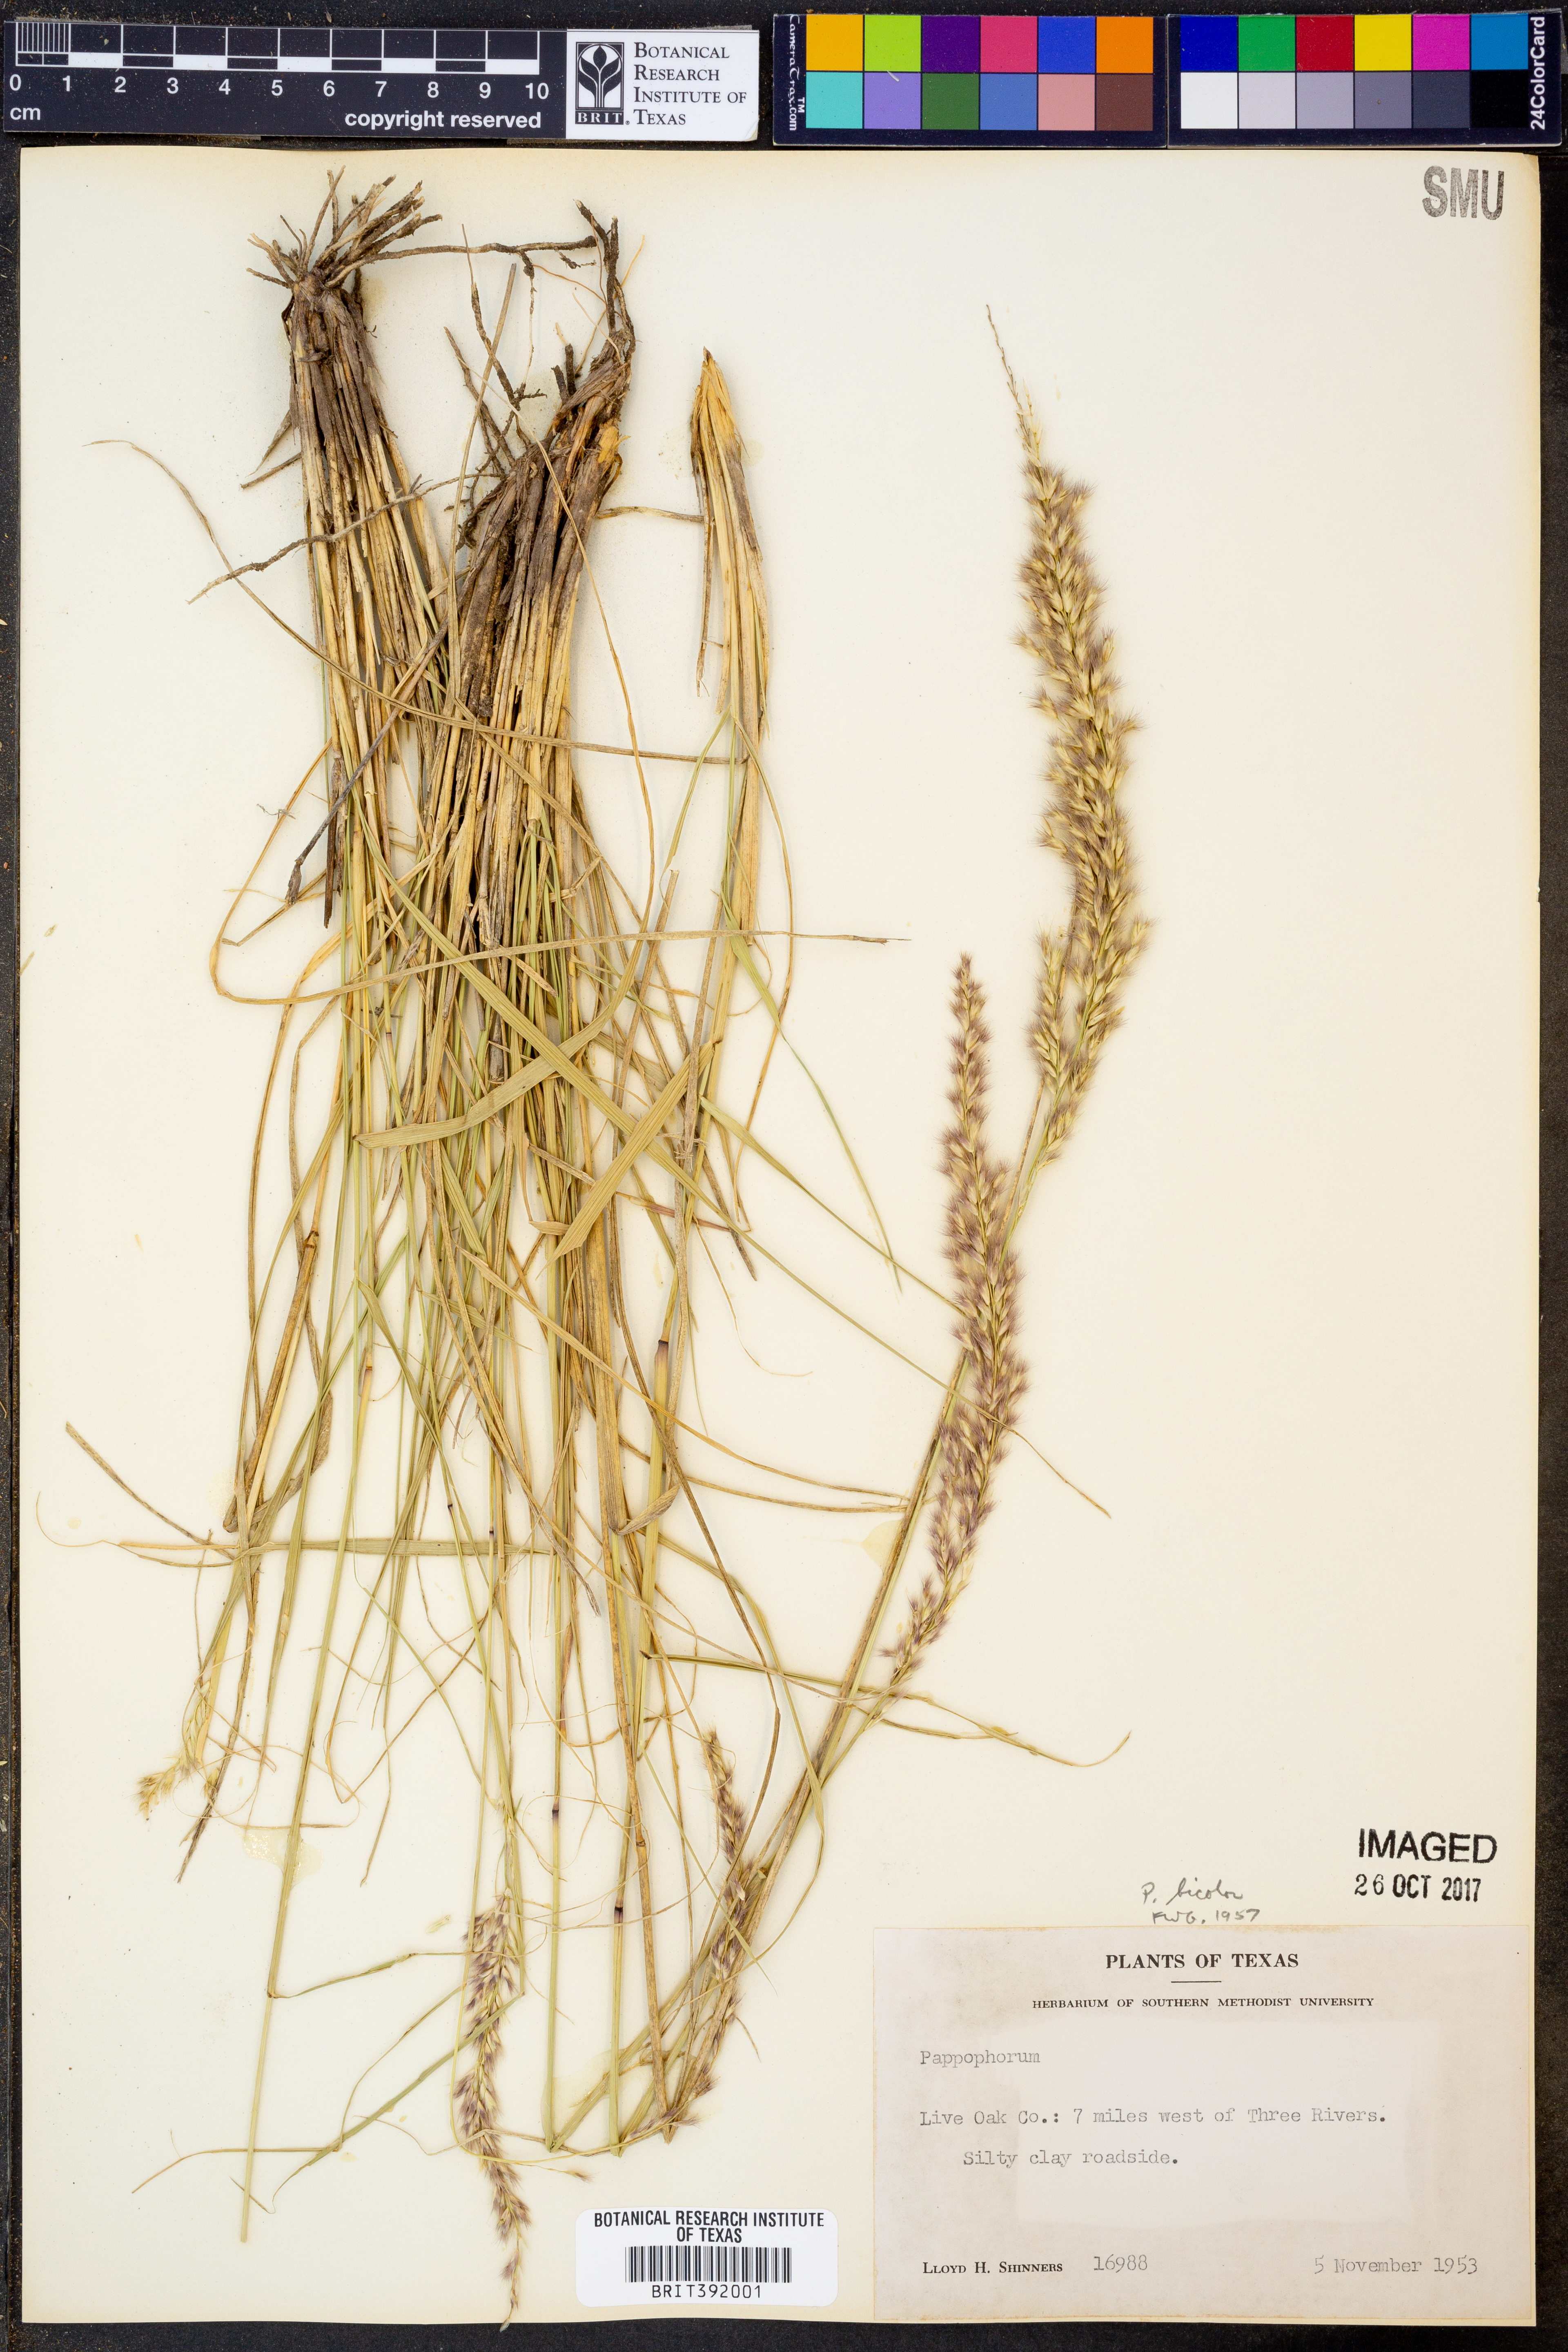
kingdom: Plantae
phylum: Tracheophyta
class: Liliopsida
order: Poales
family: Poaceae
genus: Pappophorum
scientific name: Pappophorum bicolor
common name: Pink pappus grass
